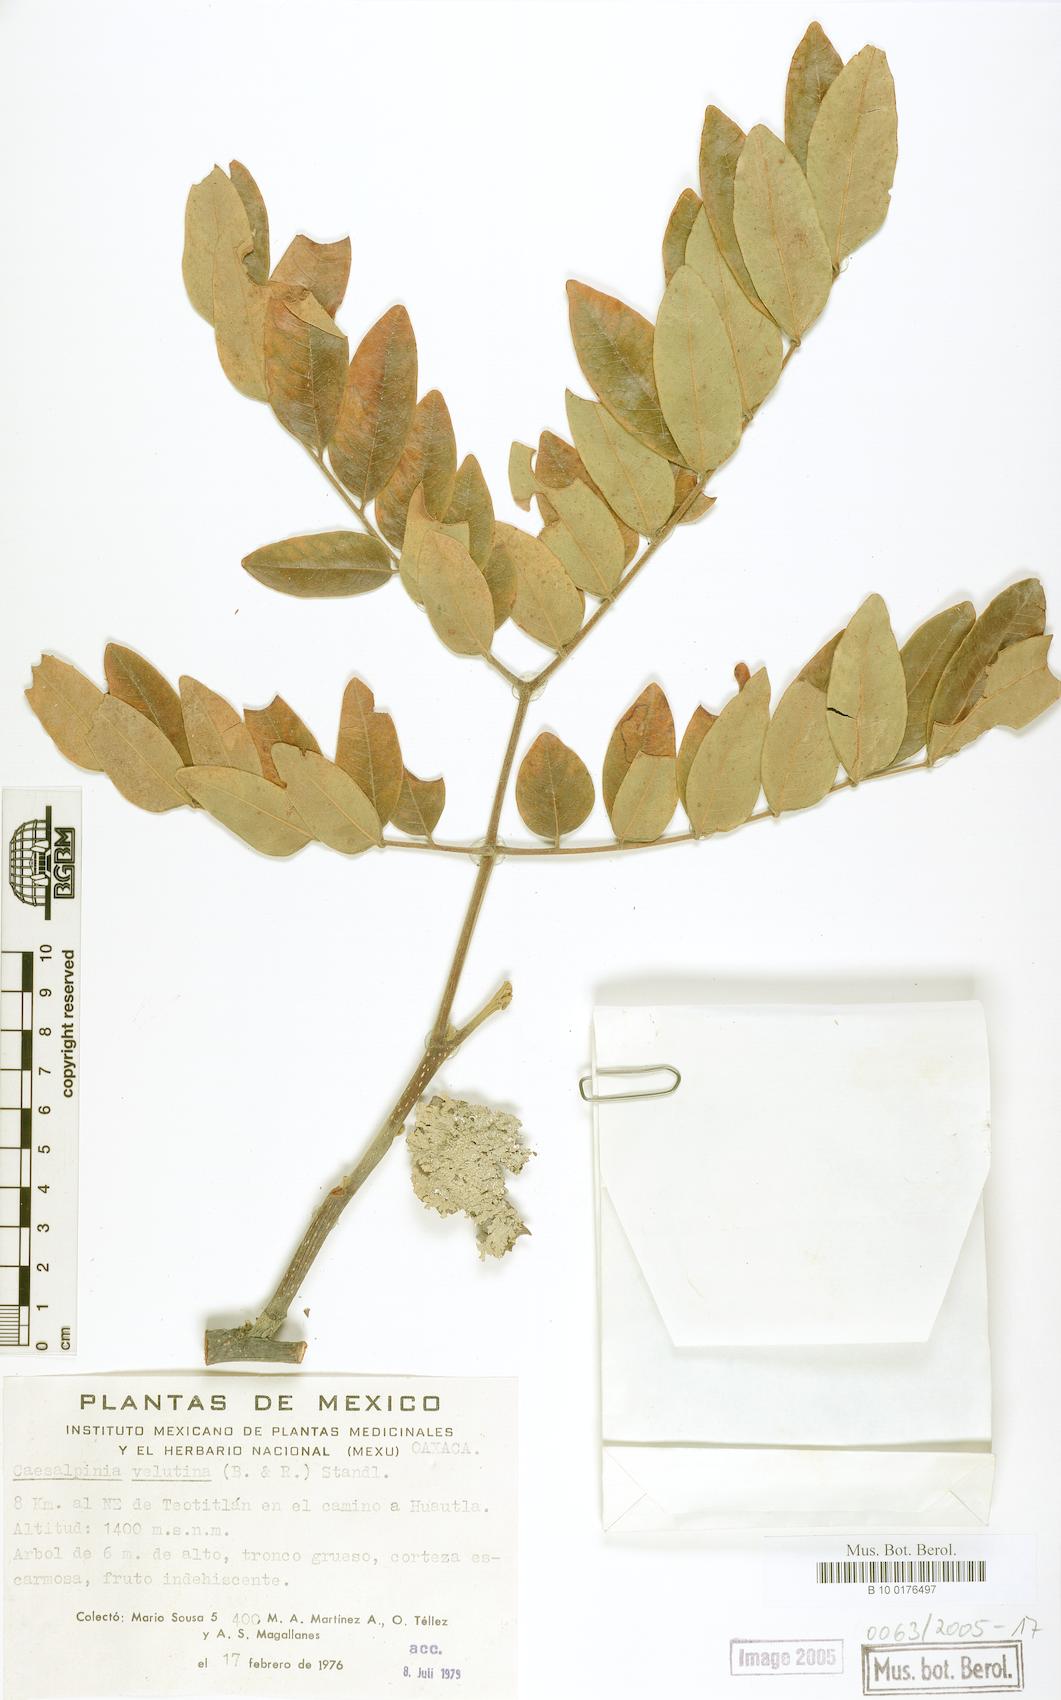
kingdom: Plantae
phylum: Tracheophyta
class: Magnoliopsida
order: Fabales
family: Fabaceae
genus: Coulteria
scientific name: Coulteria velutina
